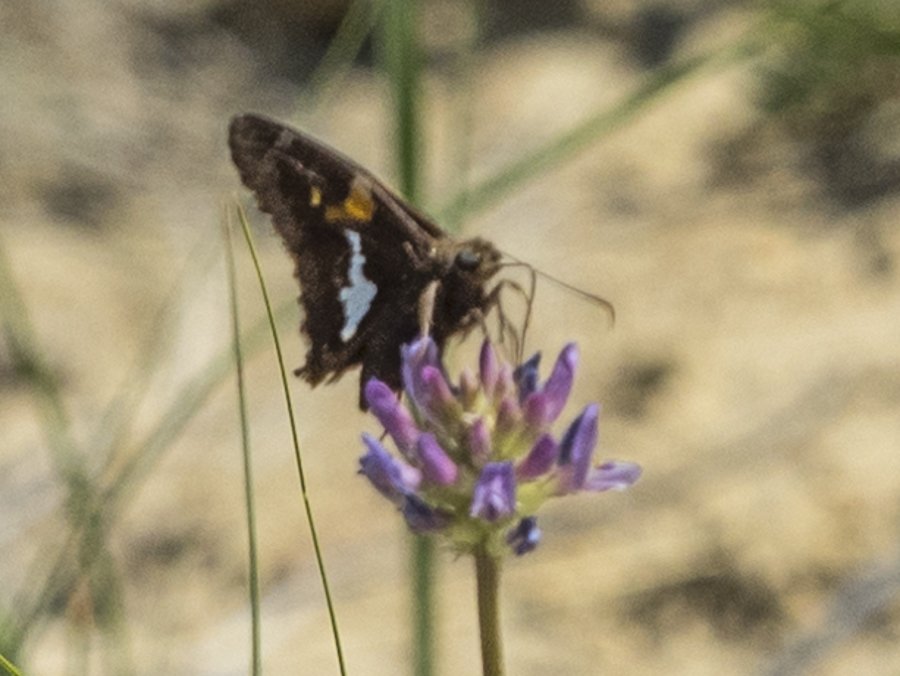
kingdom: Animalia
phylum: Arthropoda
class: Insecta
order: Lepidoptera
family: Hesperiidae
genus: Epargyreus
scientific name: Epargyreus clarus
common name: Silver-spotted Skipper
